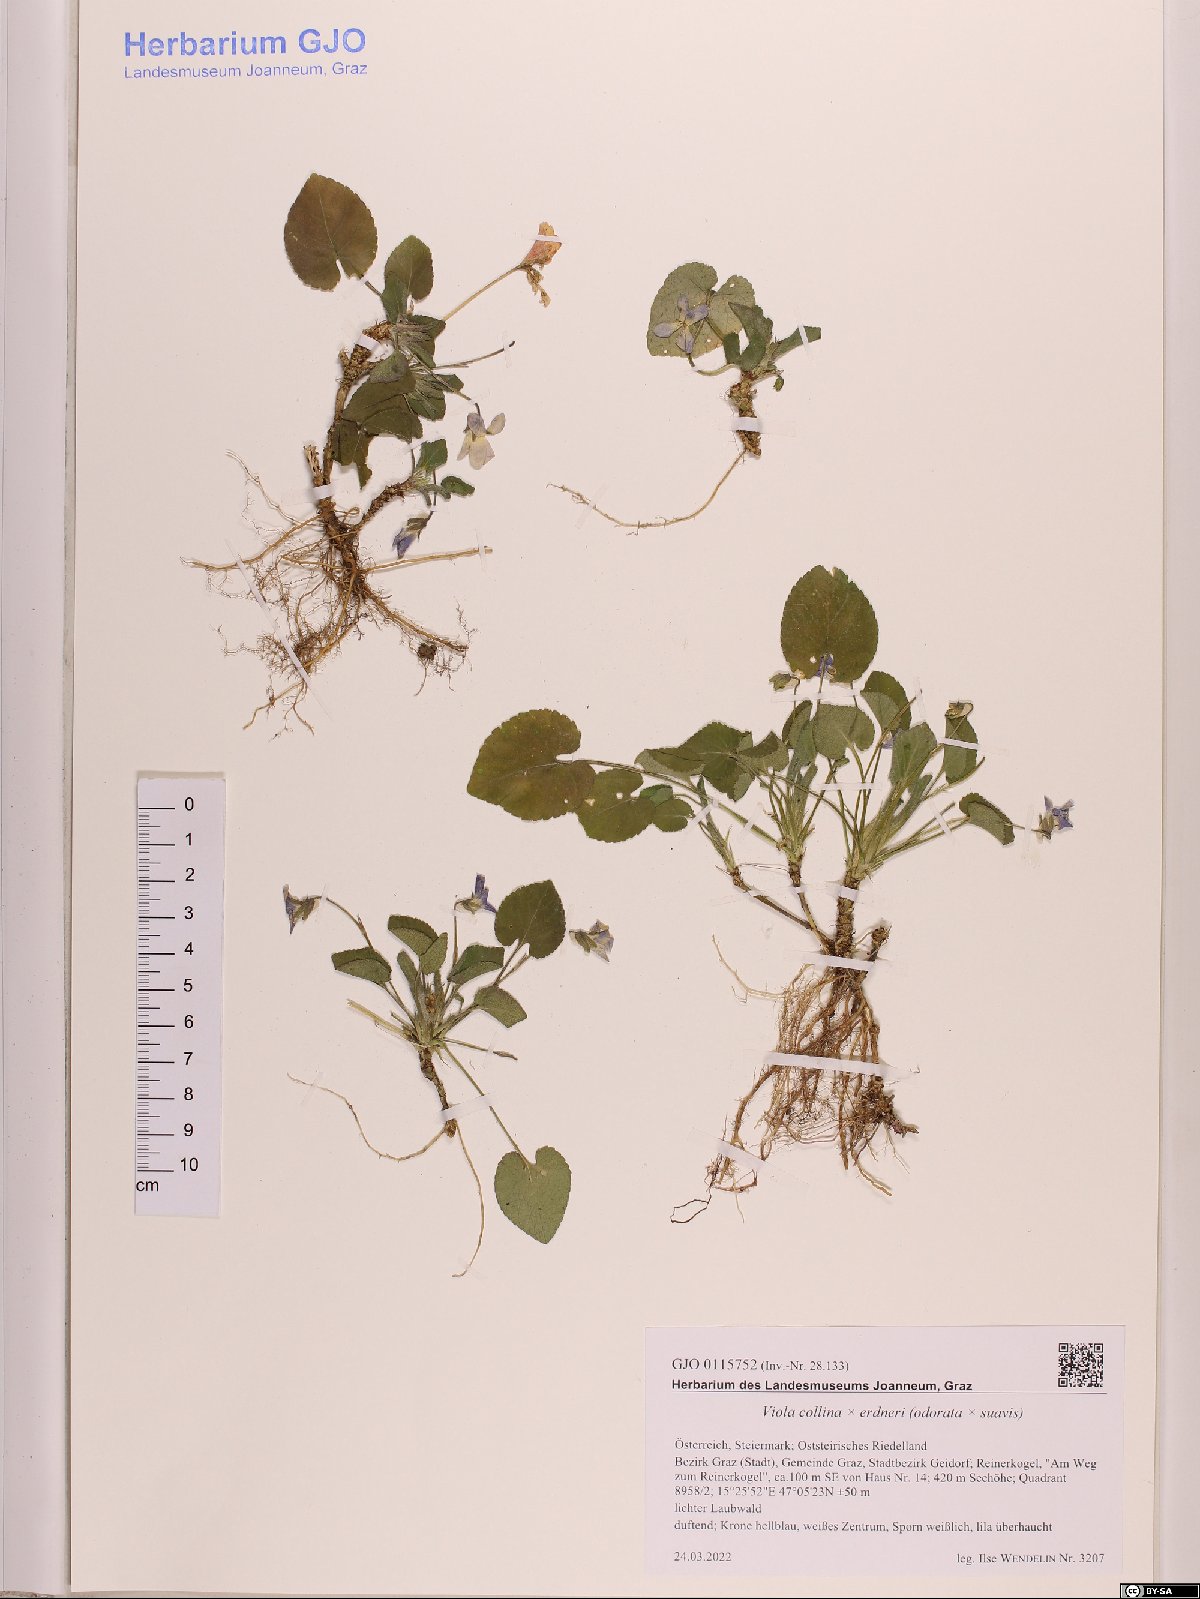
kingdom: Plantae
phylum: Tracheophyta
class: Magnoliopsida
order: Malpighiales
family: Violaceae
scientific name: Violaceae
